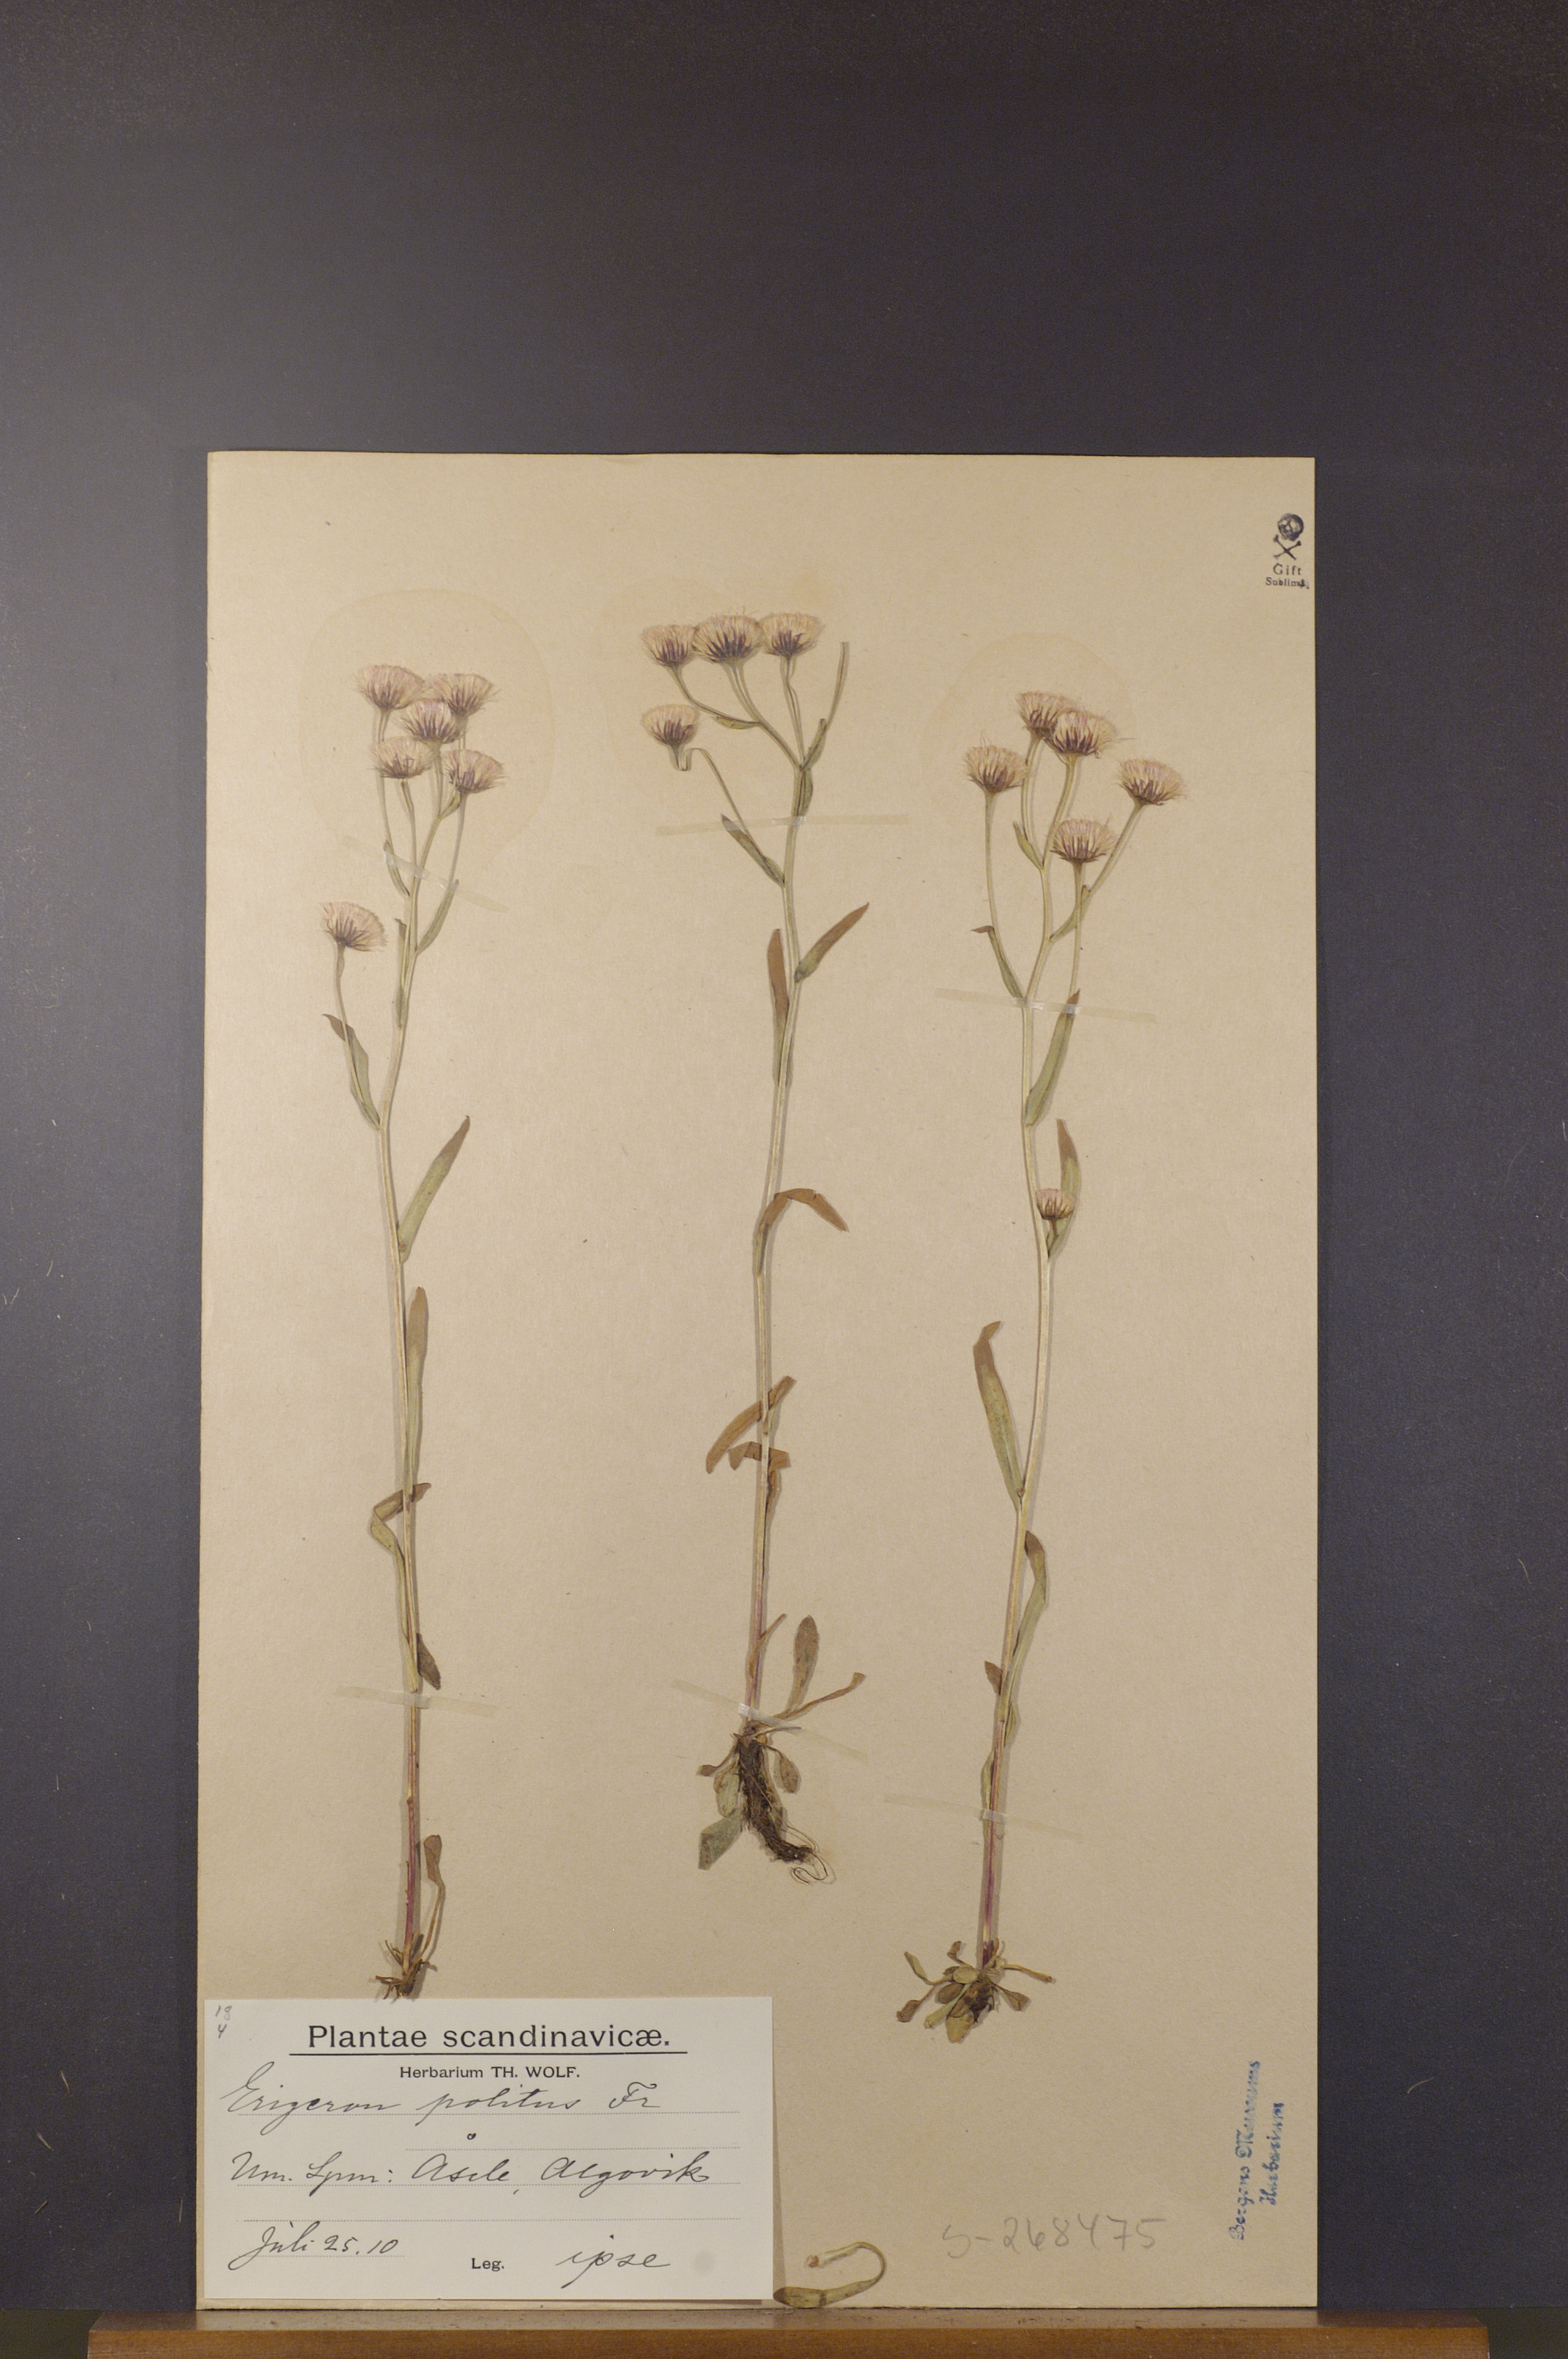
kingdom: Plantae
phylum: Tracheophyta
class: Magnoliopsida
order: Asterales
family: Asteraceae
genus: Erigeron
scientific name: Erigeron politus
